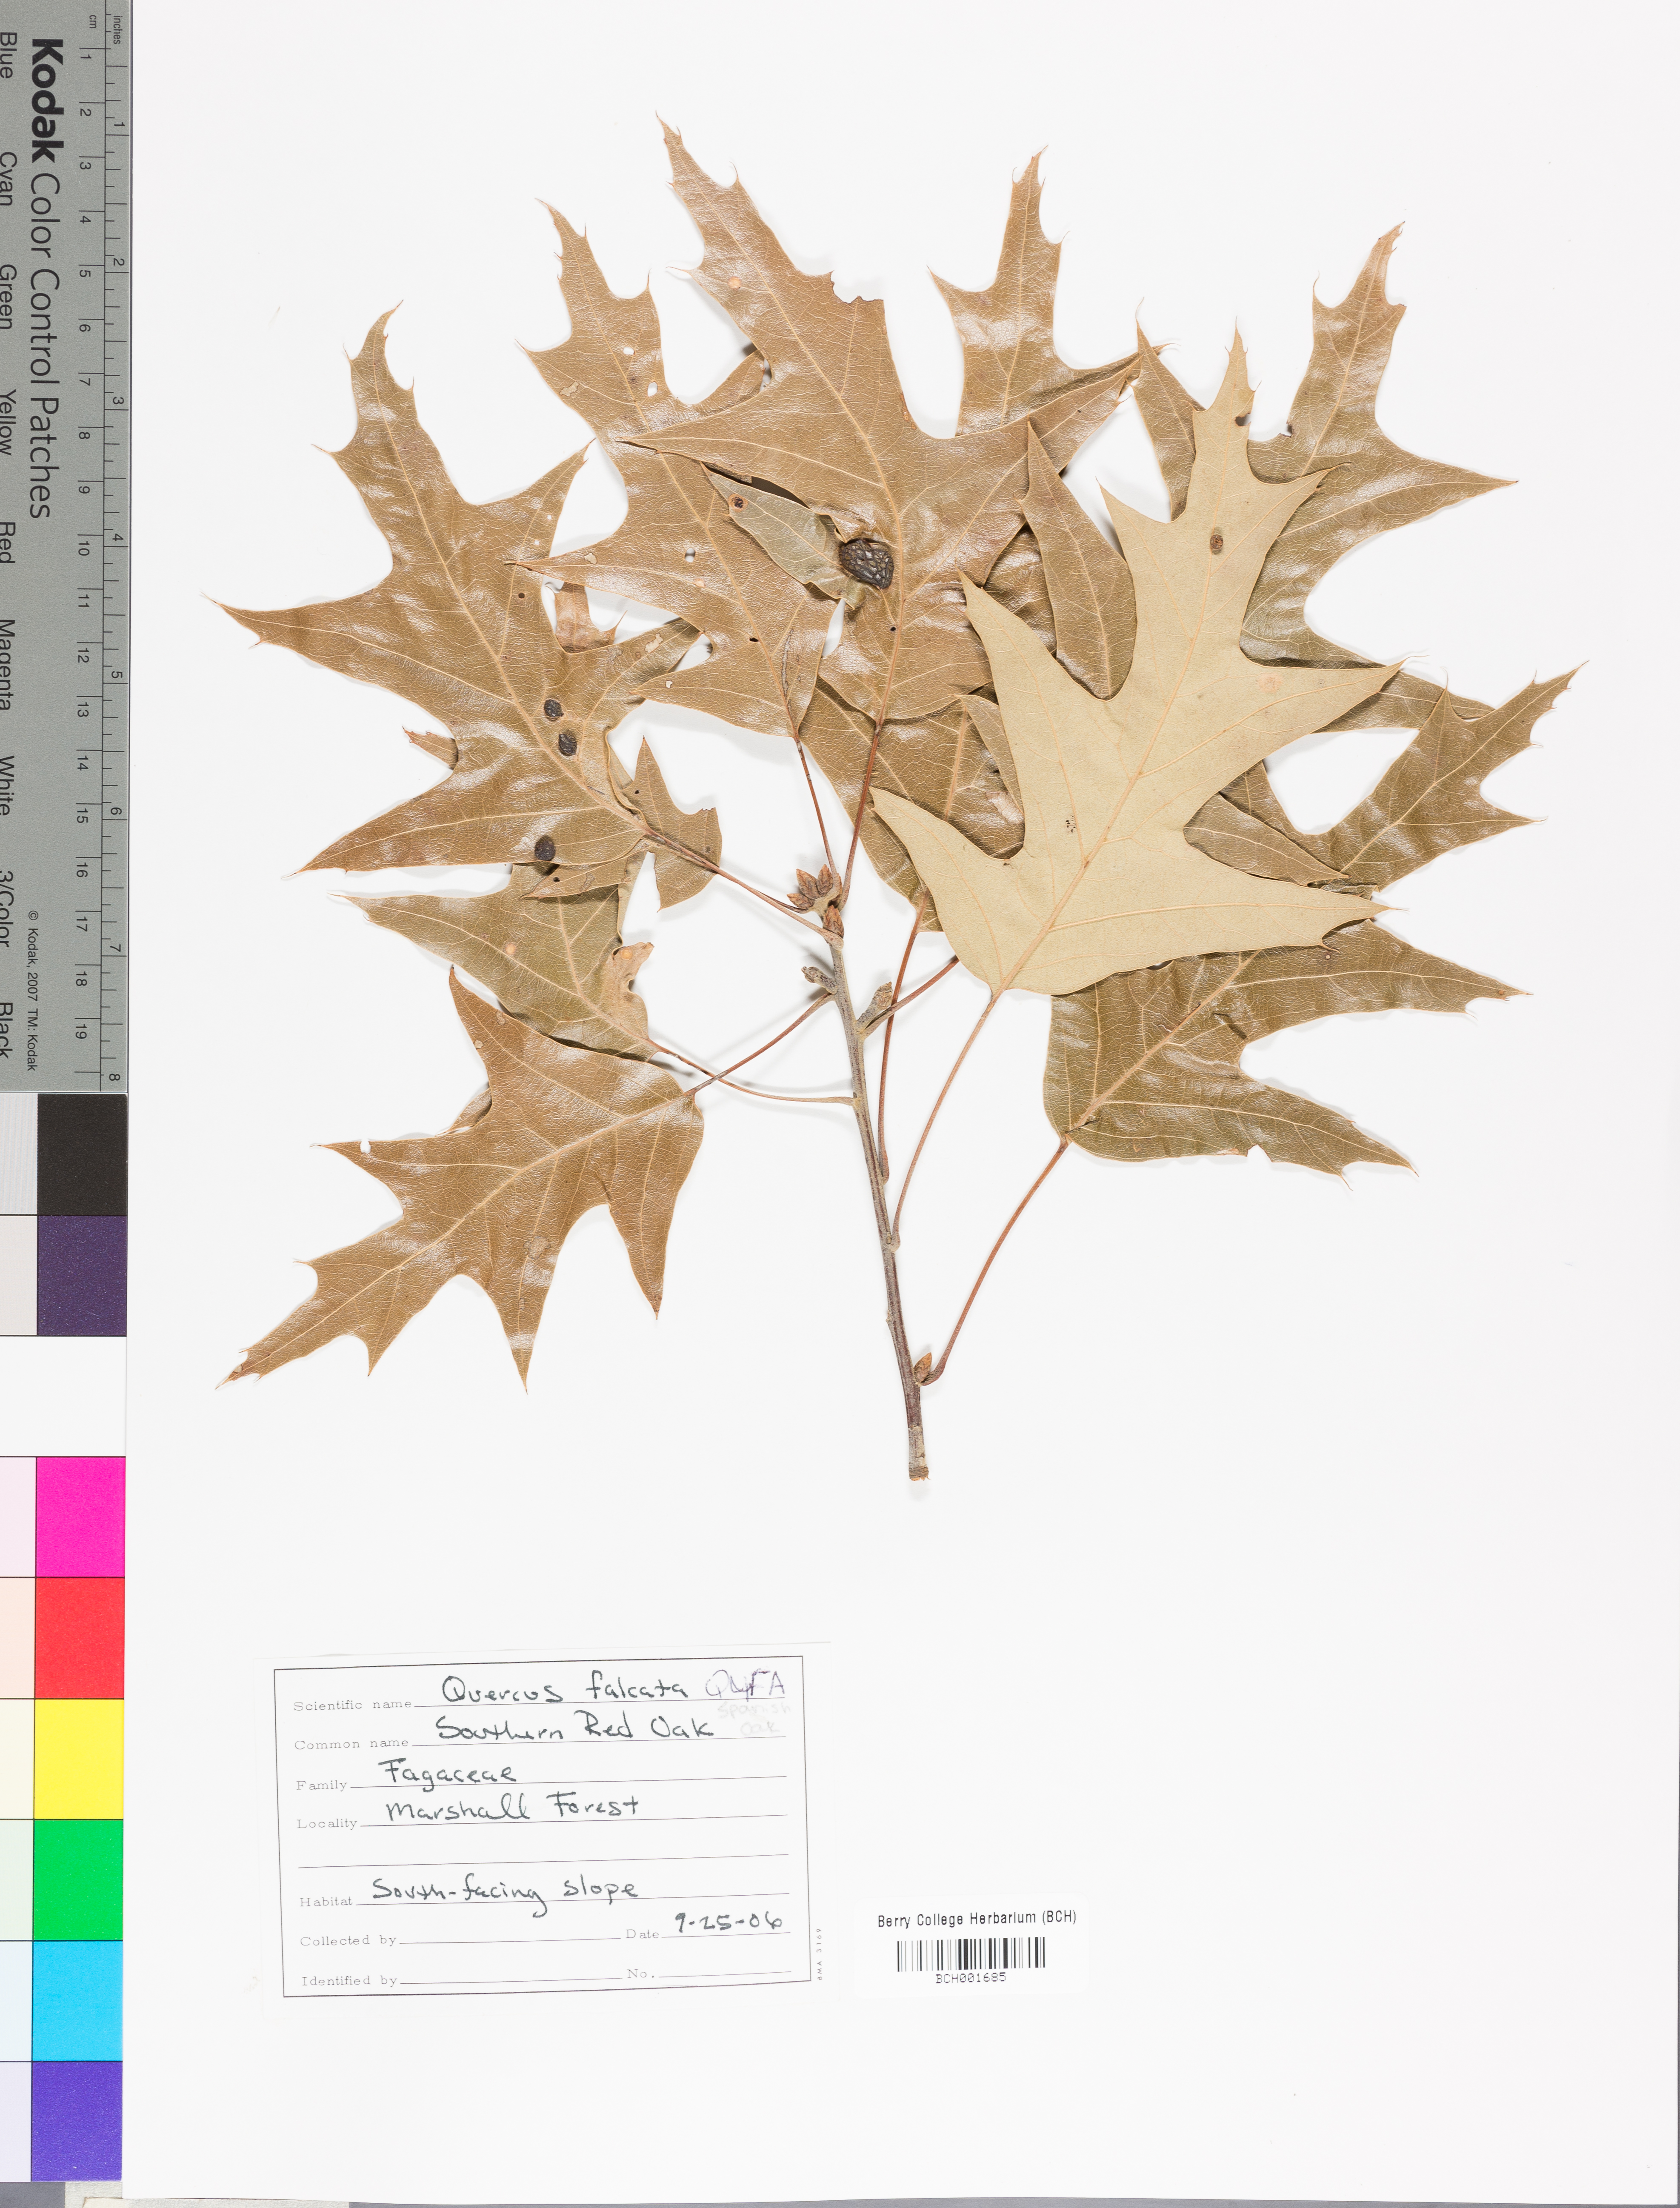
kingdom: Plantae
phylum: Tracheophyta
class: Magnoliopsida
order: Fagales
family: Fagaceae
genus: Quercus
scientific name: Quercus falcata
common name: Southern red oak
